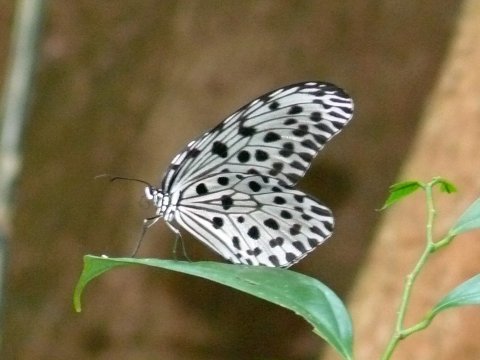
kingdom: Animalia
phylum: Arthropoda
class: Insecta
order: Lepidoptera
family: Nymphalidae
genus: Idea
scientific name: Idea stolli
